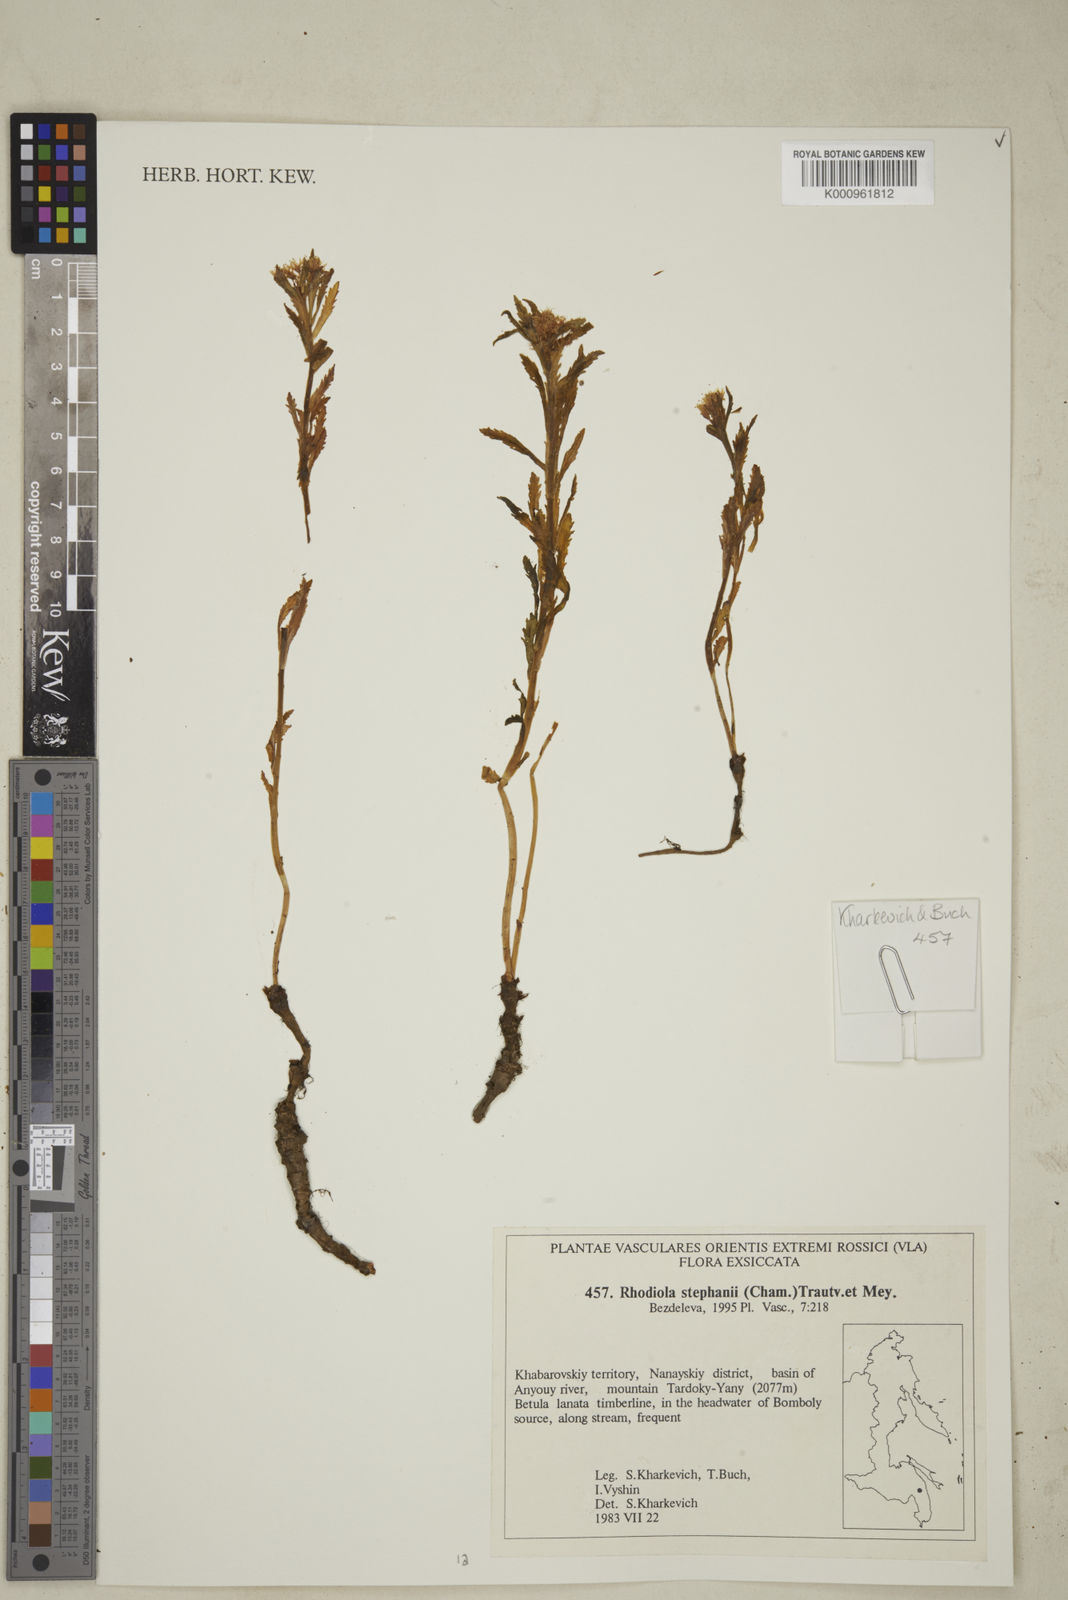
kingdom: Plantae
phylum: Tracheophyta
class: Magnoliopsida
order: Saxifragales
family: Crassulaceae
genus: Rhodiola
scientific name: Rhodiola stephani
